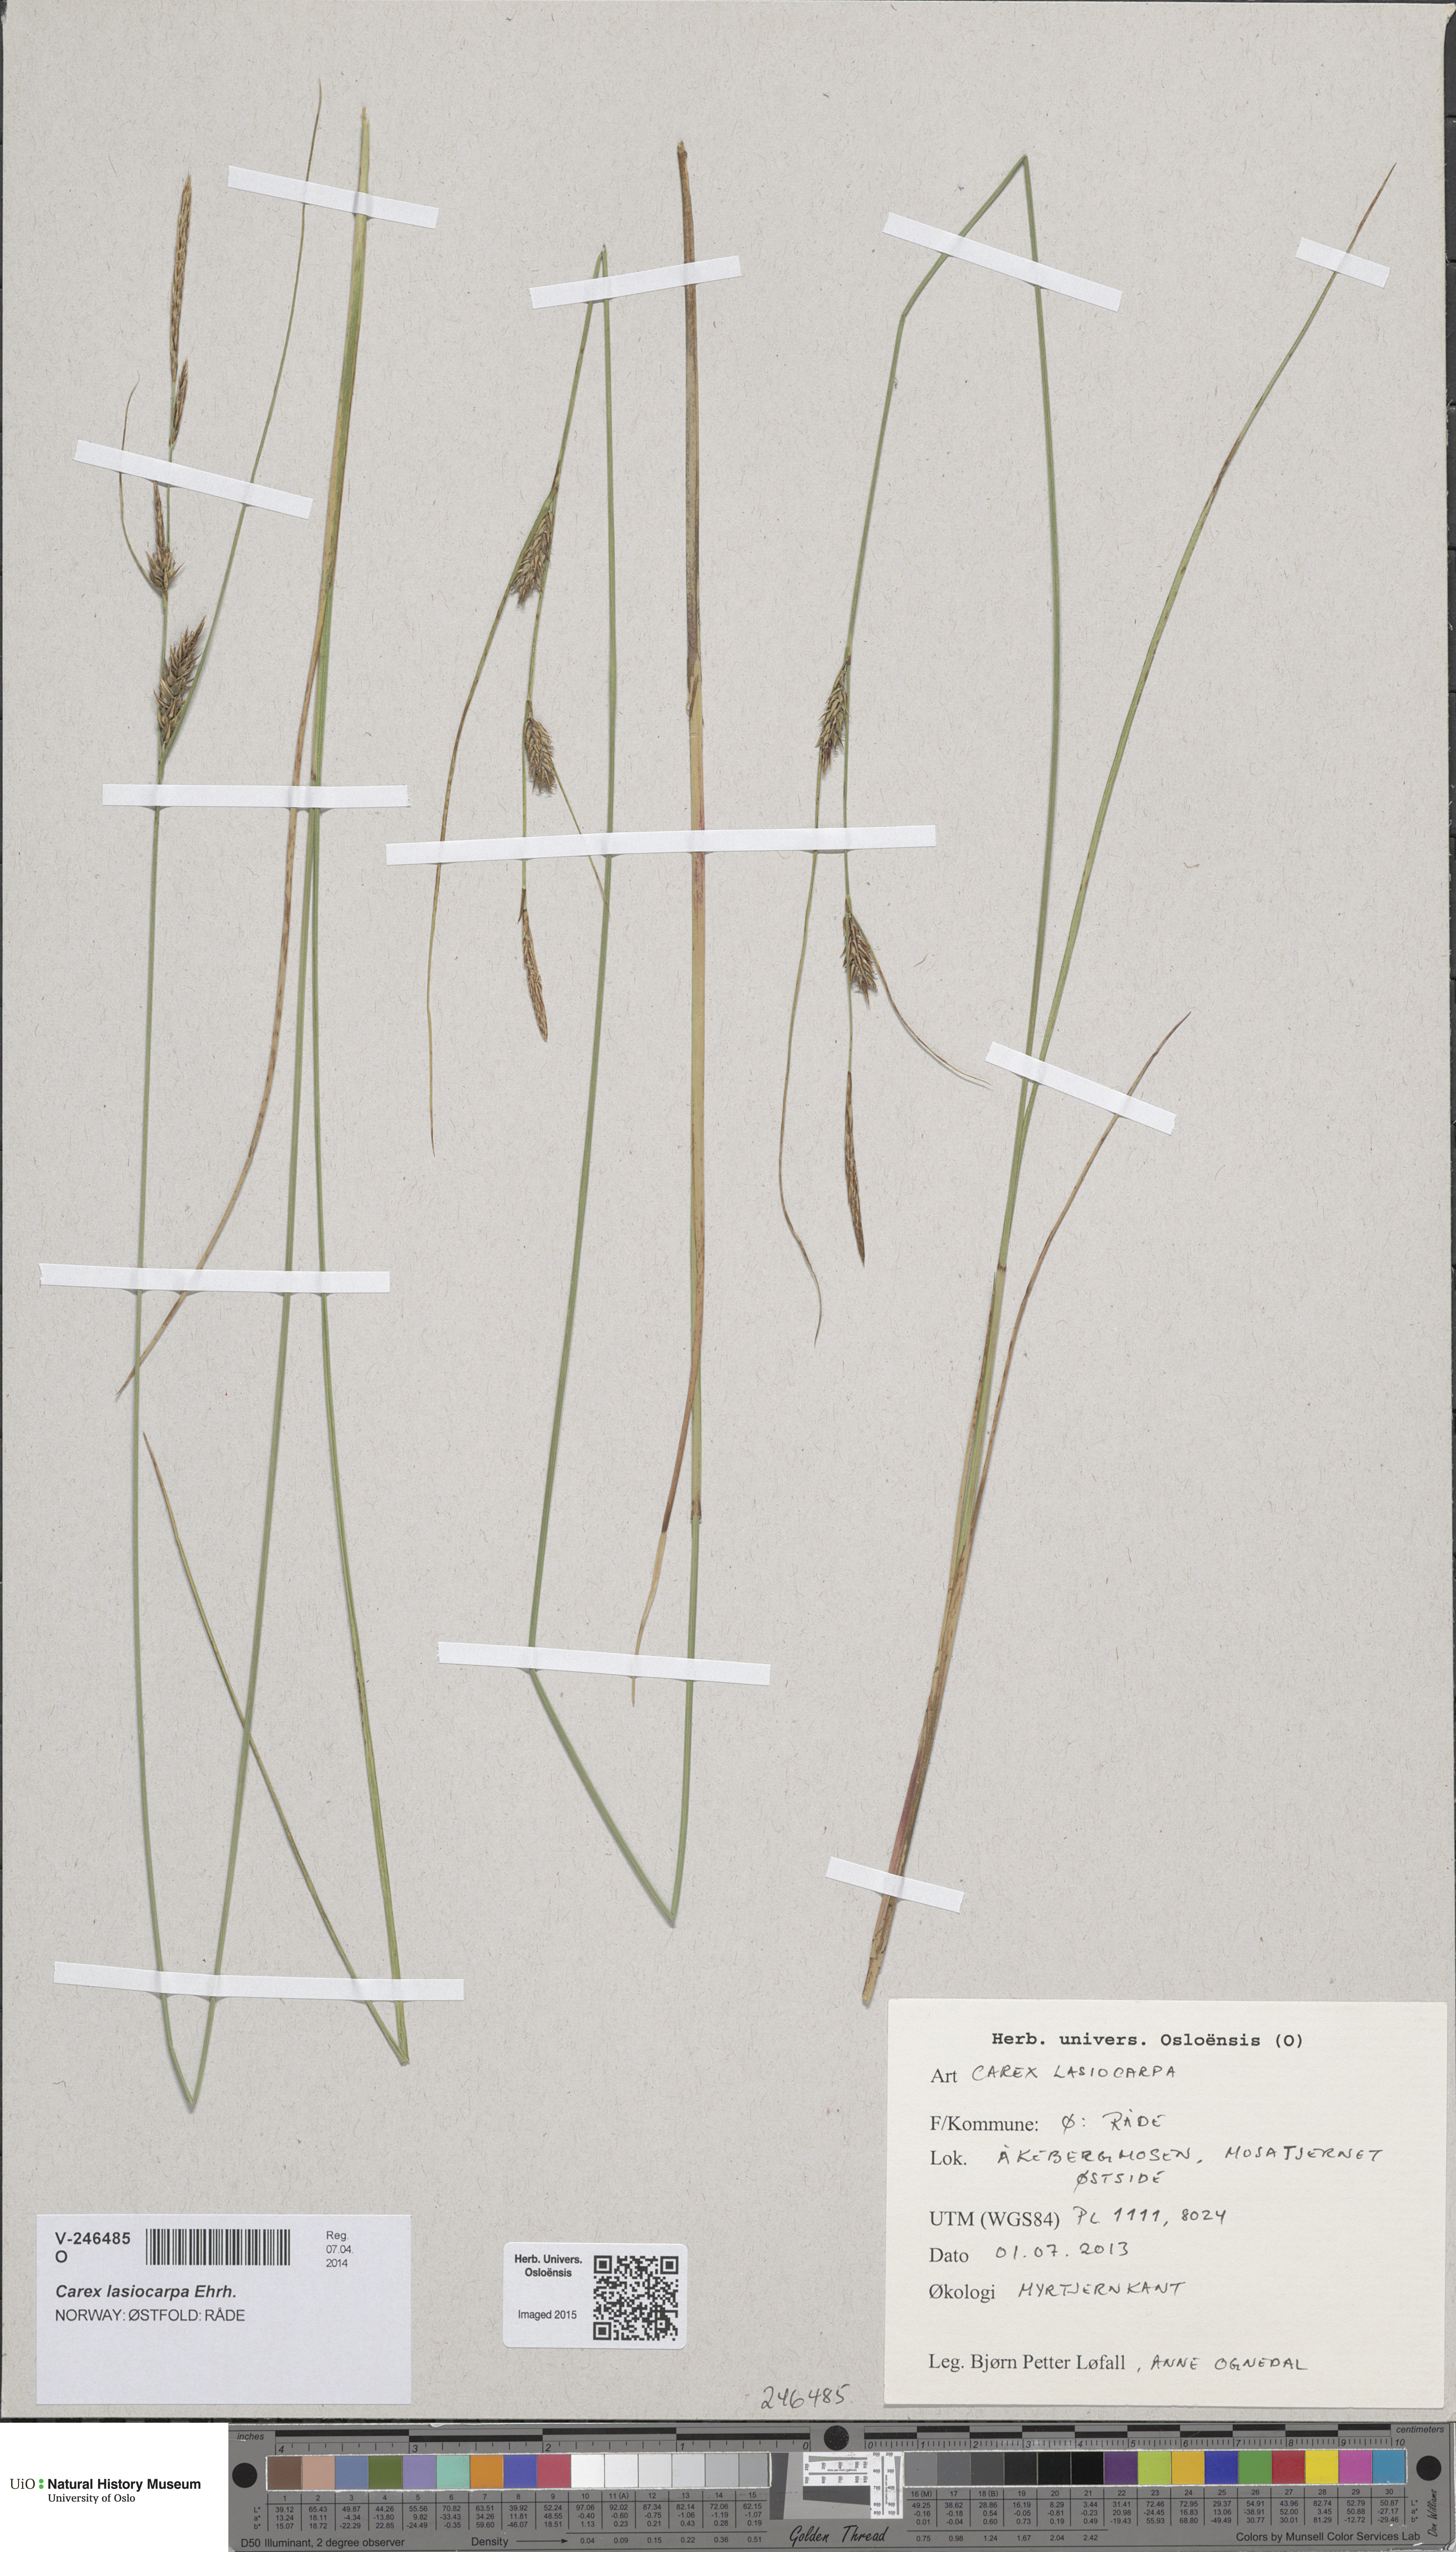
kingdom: Plantae
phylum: Tracheophyta
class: Liliopsida
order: Poales
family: Cyperaceae
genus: Carex
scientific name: Carex lasiocarpa
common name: Slender sedge
